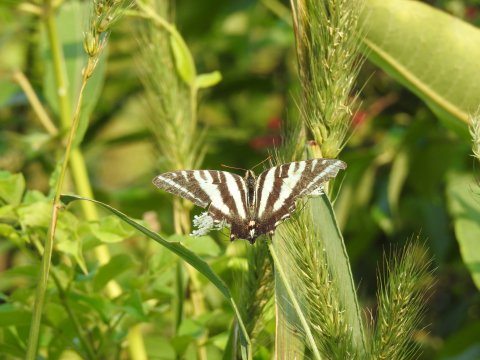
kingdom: Animalia
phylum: Arthropoda
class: Insecta
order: Lepidoptera
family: Papilionidae
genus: Protographium
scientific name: Protographium marcellus
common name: Zebra Swallowtail
